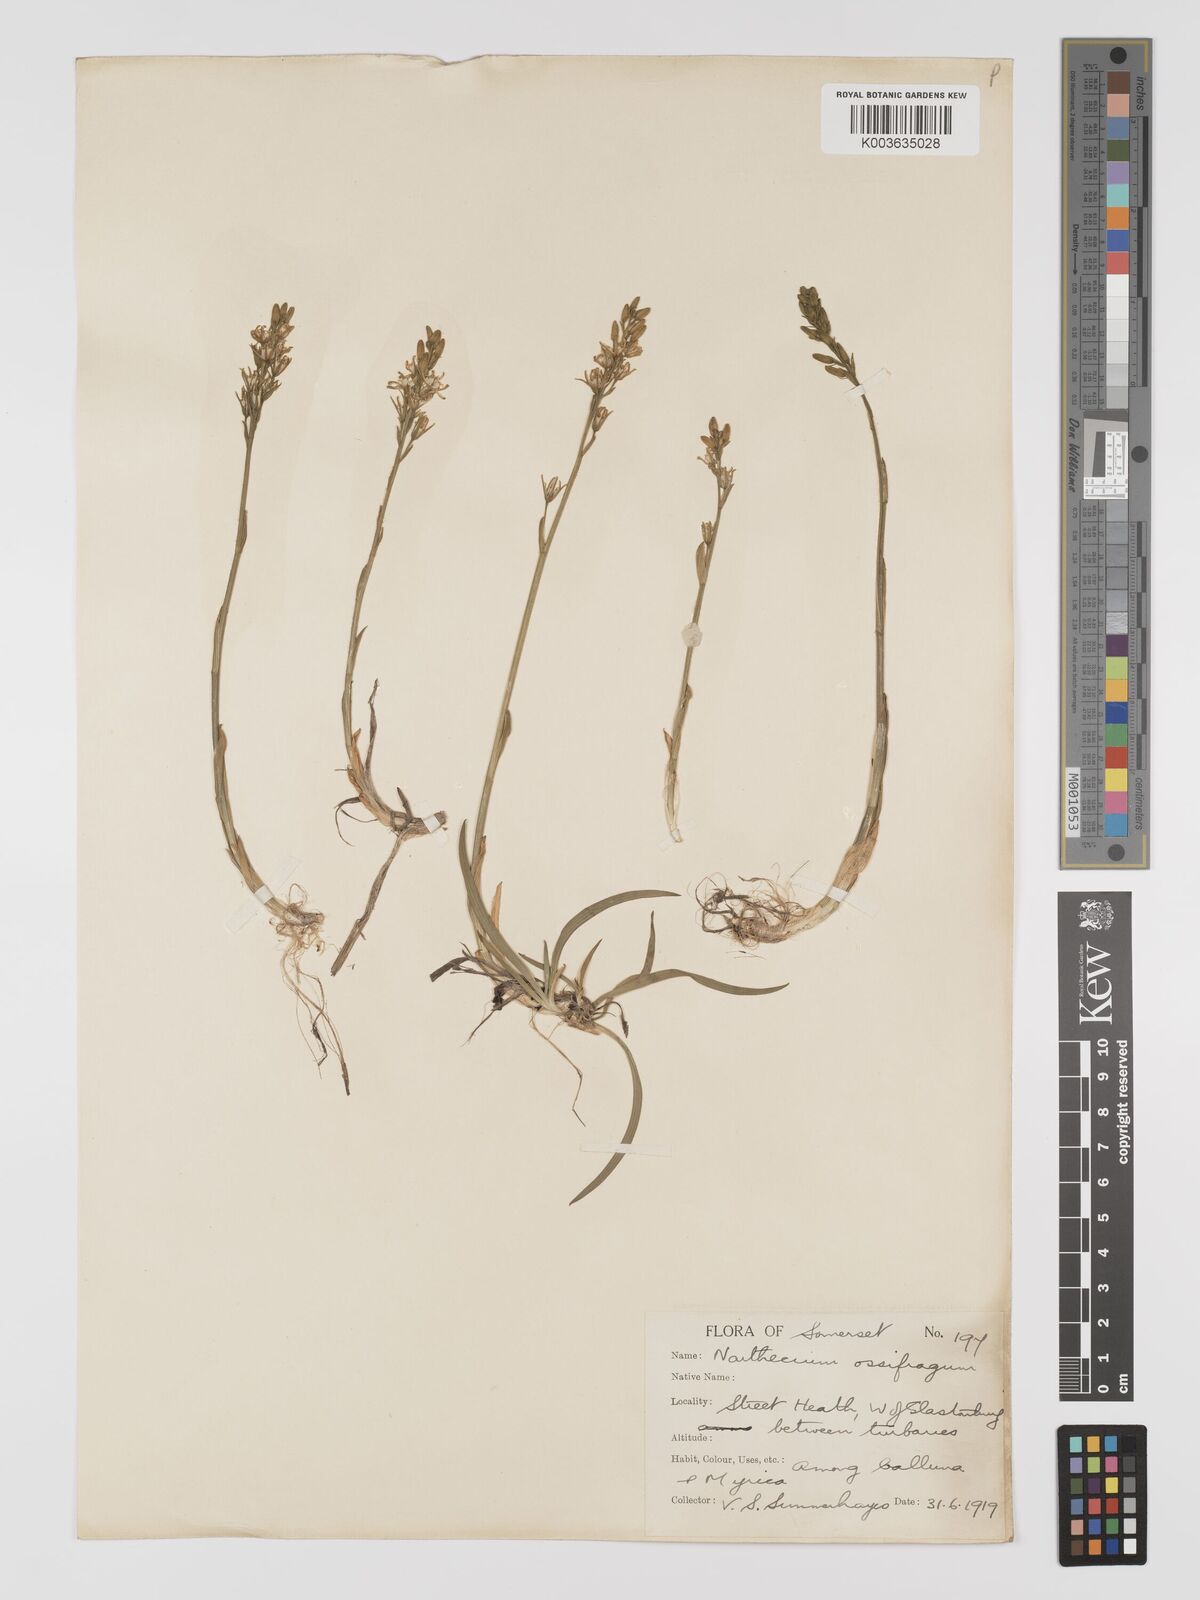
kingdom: Plantae
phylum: Tracheophyta
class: Liliopsida
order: Dioscoreales
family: Nartheciaceae
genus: Narthecium
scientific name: Narthecium ossifragum
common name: Bog asphodel
